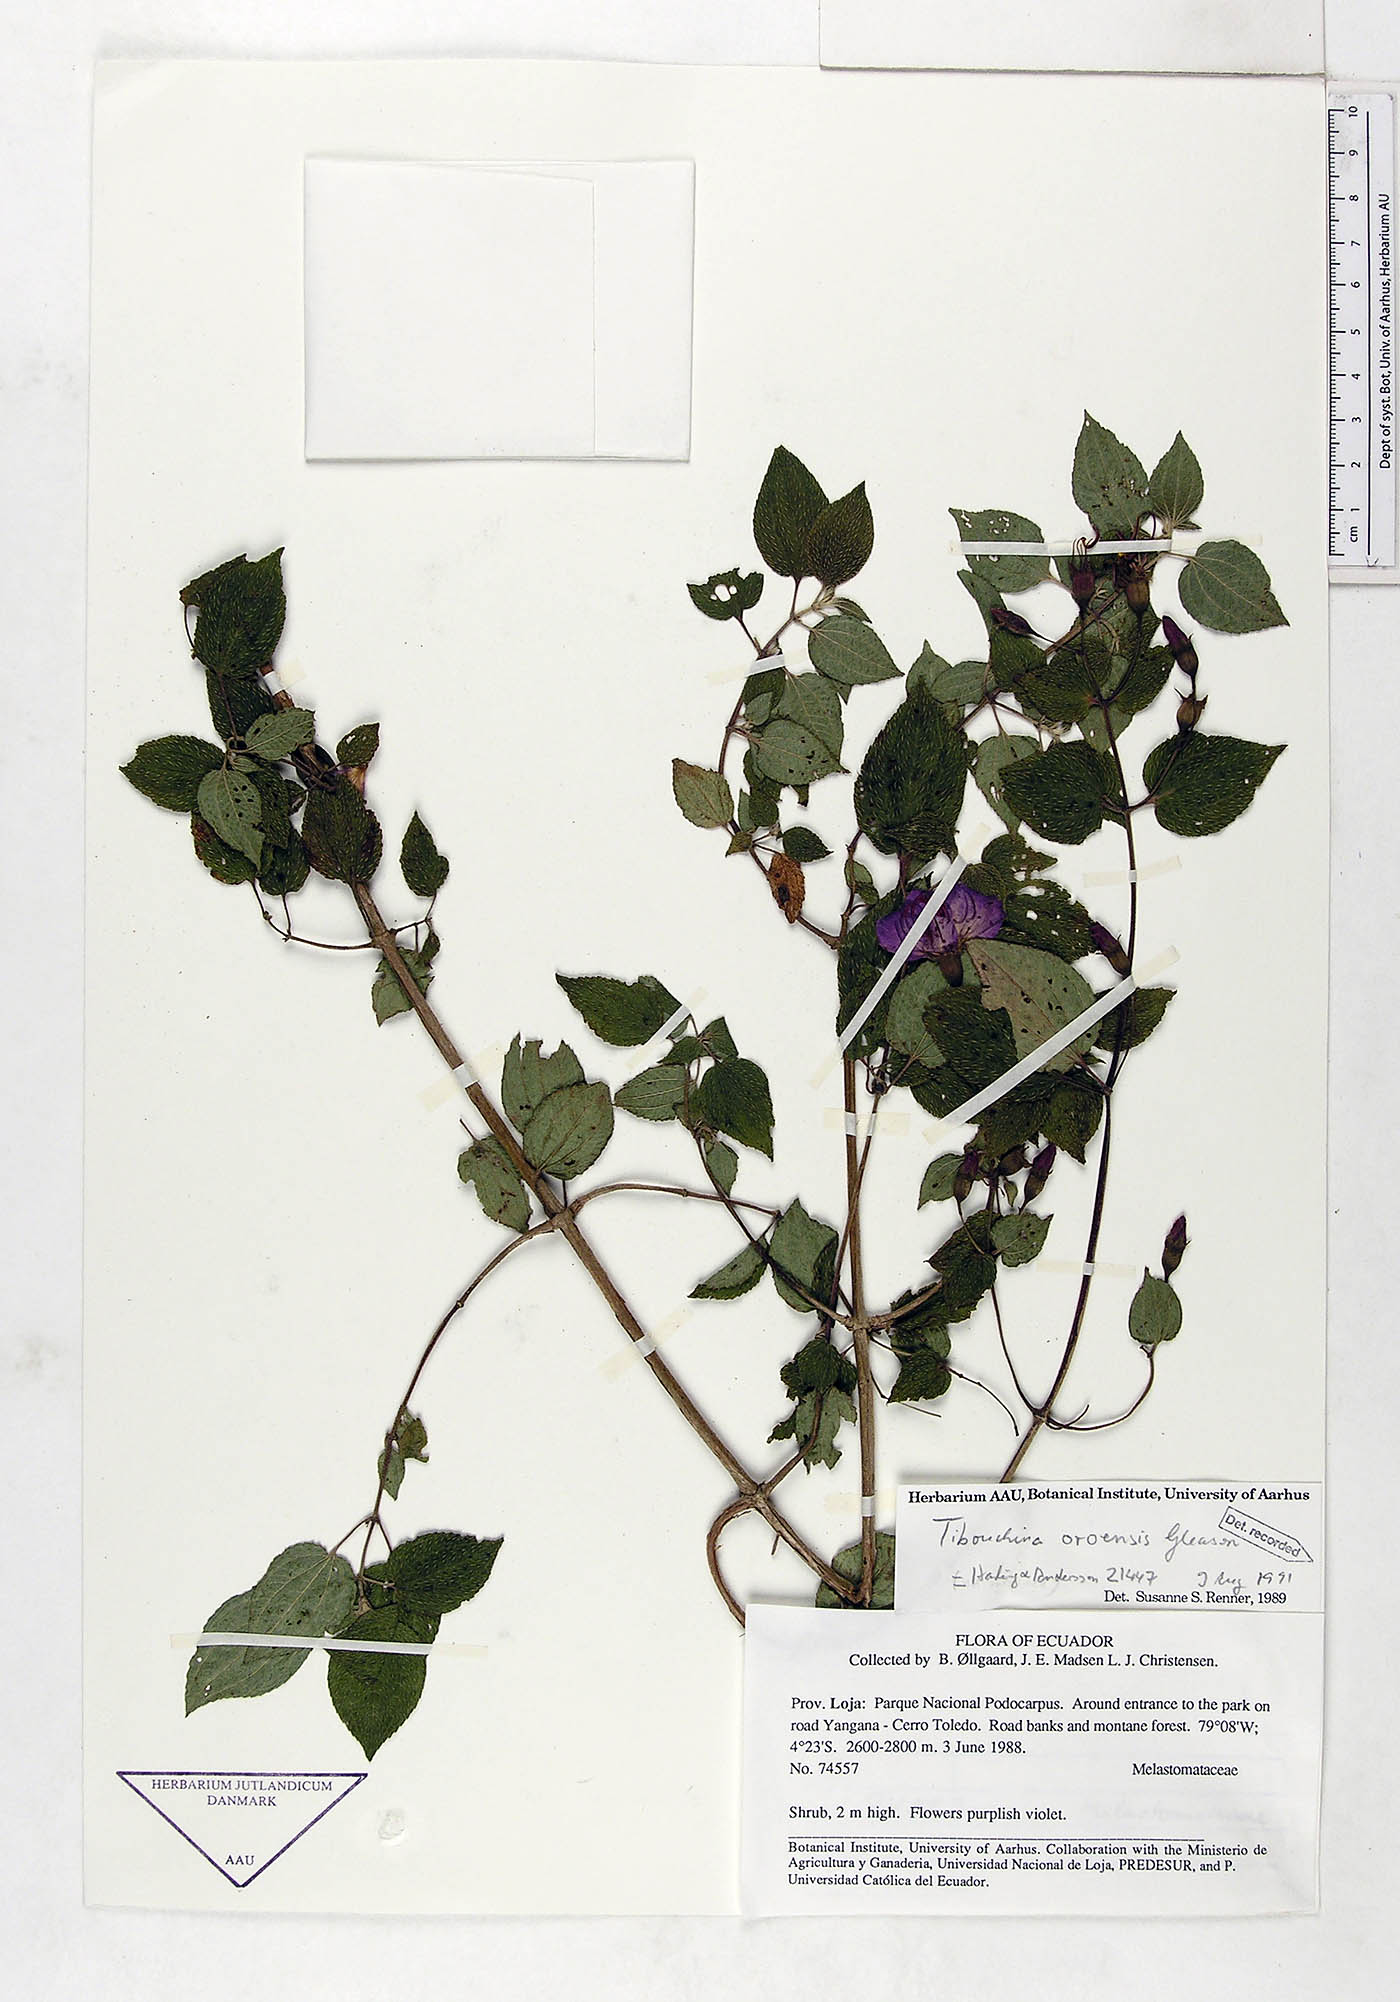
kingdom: Plantae
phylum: Tracheophyta
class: Magnoliopsida
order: Myrtales
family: Melastomataceae
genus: Chaetogastra
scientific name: Chaetogastra oroensis
